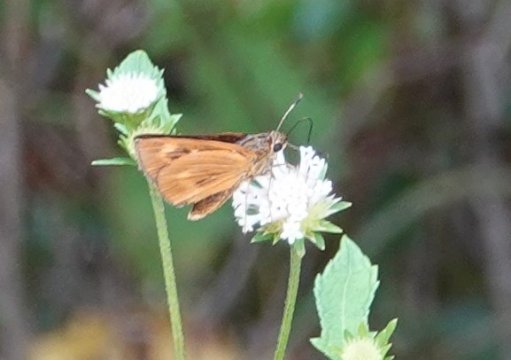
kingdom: Animalia
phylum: Arthropoda
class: Insecta
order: Lepidoptera
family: Hesperiidae
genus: Problema
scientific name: Problema byssus
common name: Byssus Skipper
